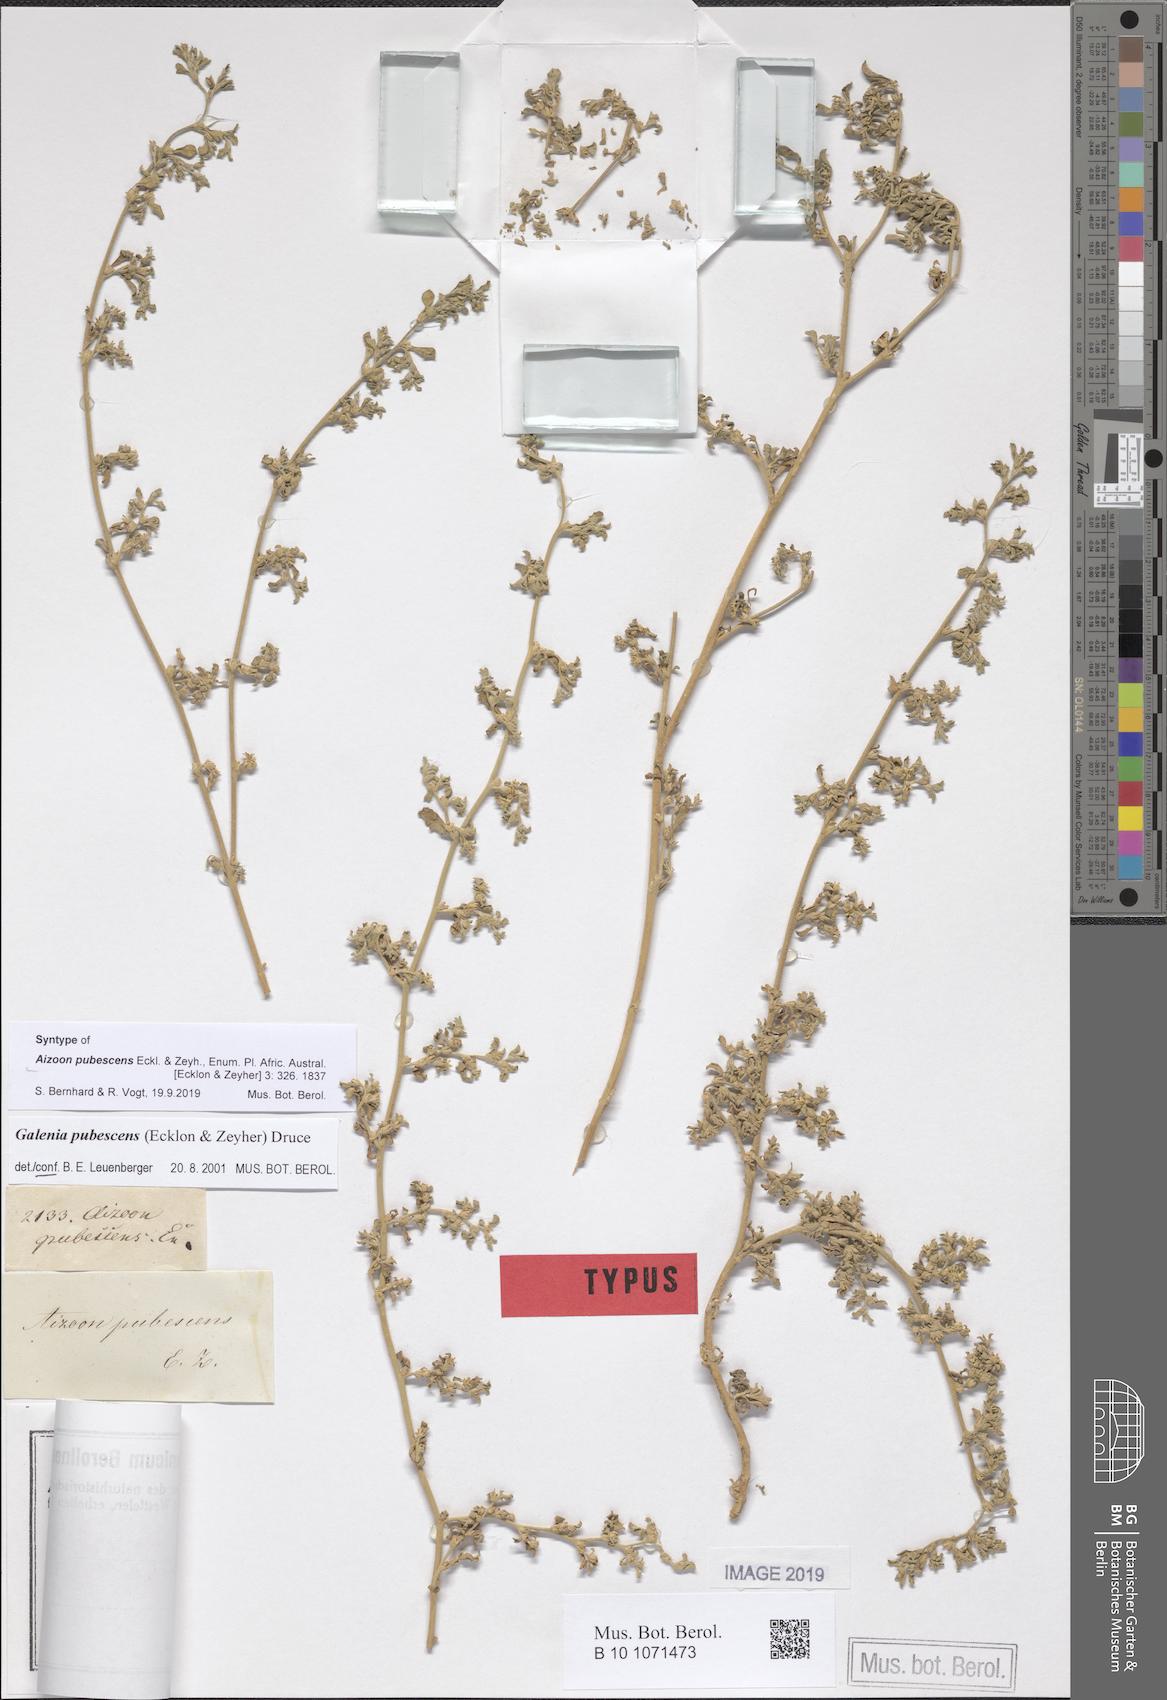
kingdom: Plantae
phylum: Tracheophyta
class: Magnoliopsida
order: Caryophyllales
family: Aizoaceae
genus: Aizoon
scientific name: Aizoon pubescens
